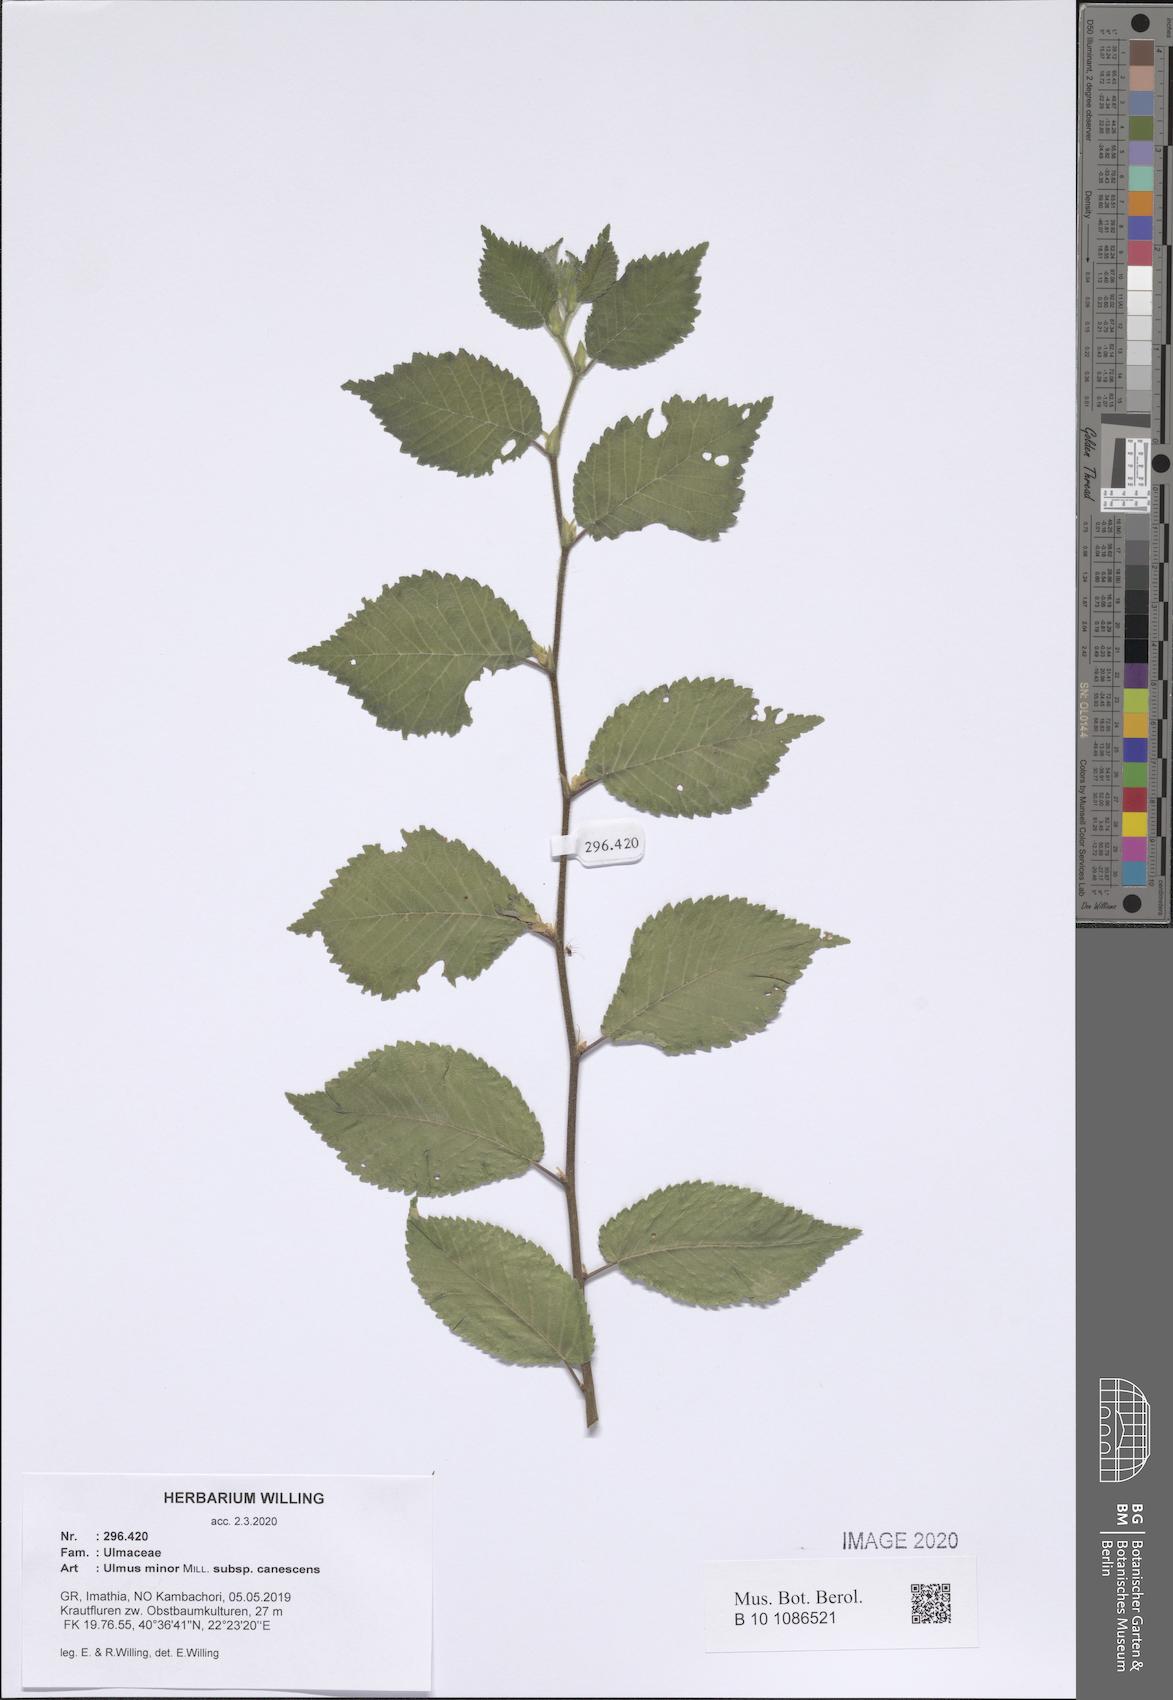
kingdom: Plantae
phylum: Tracheophyta
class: Magnoliopsida
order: Rosales
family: Ulmaceae
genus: Ulmus
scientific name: Ulmus minor
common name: Small-leaved elm
